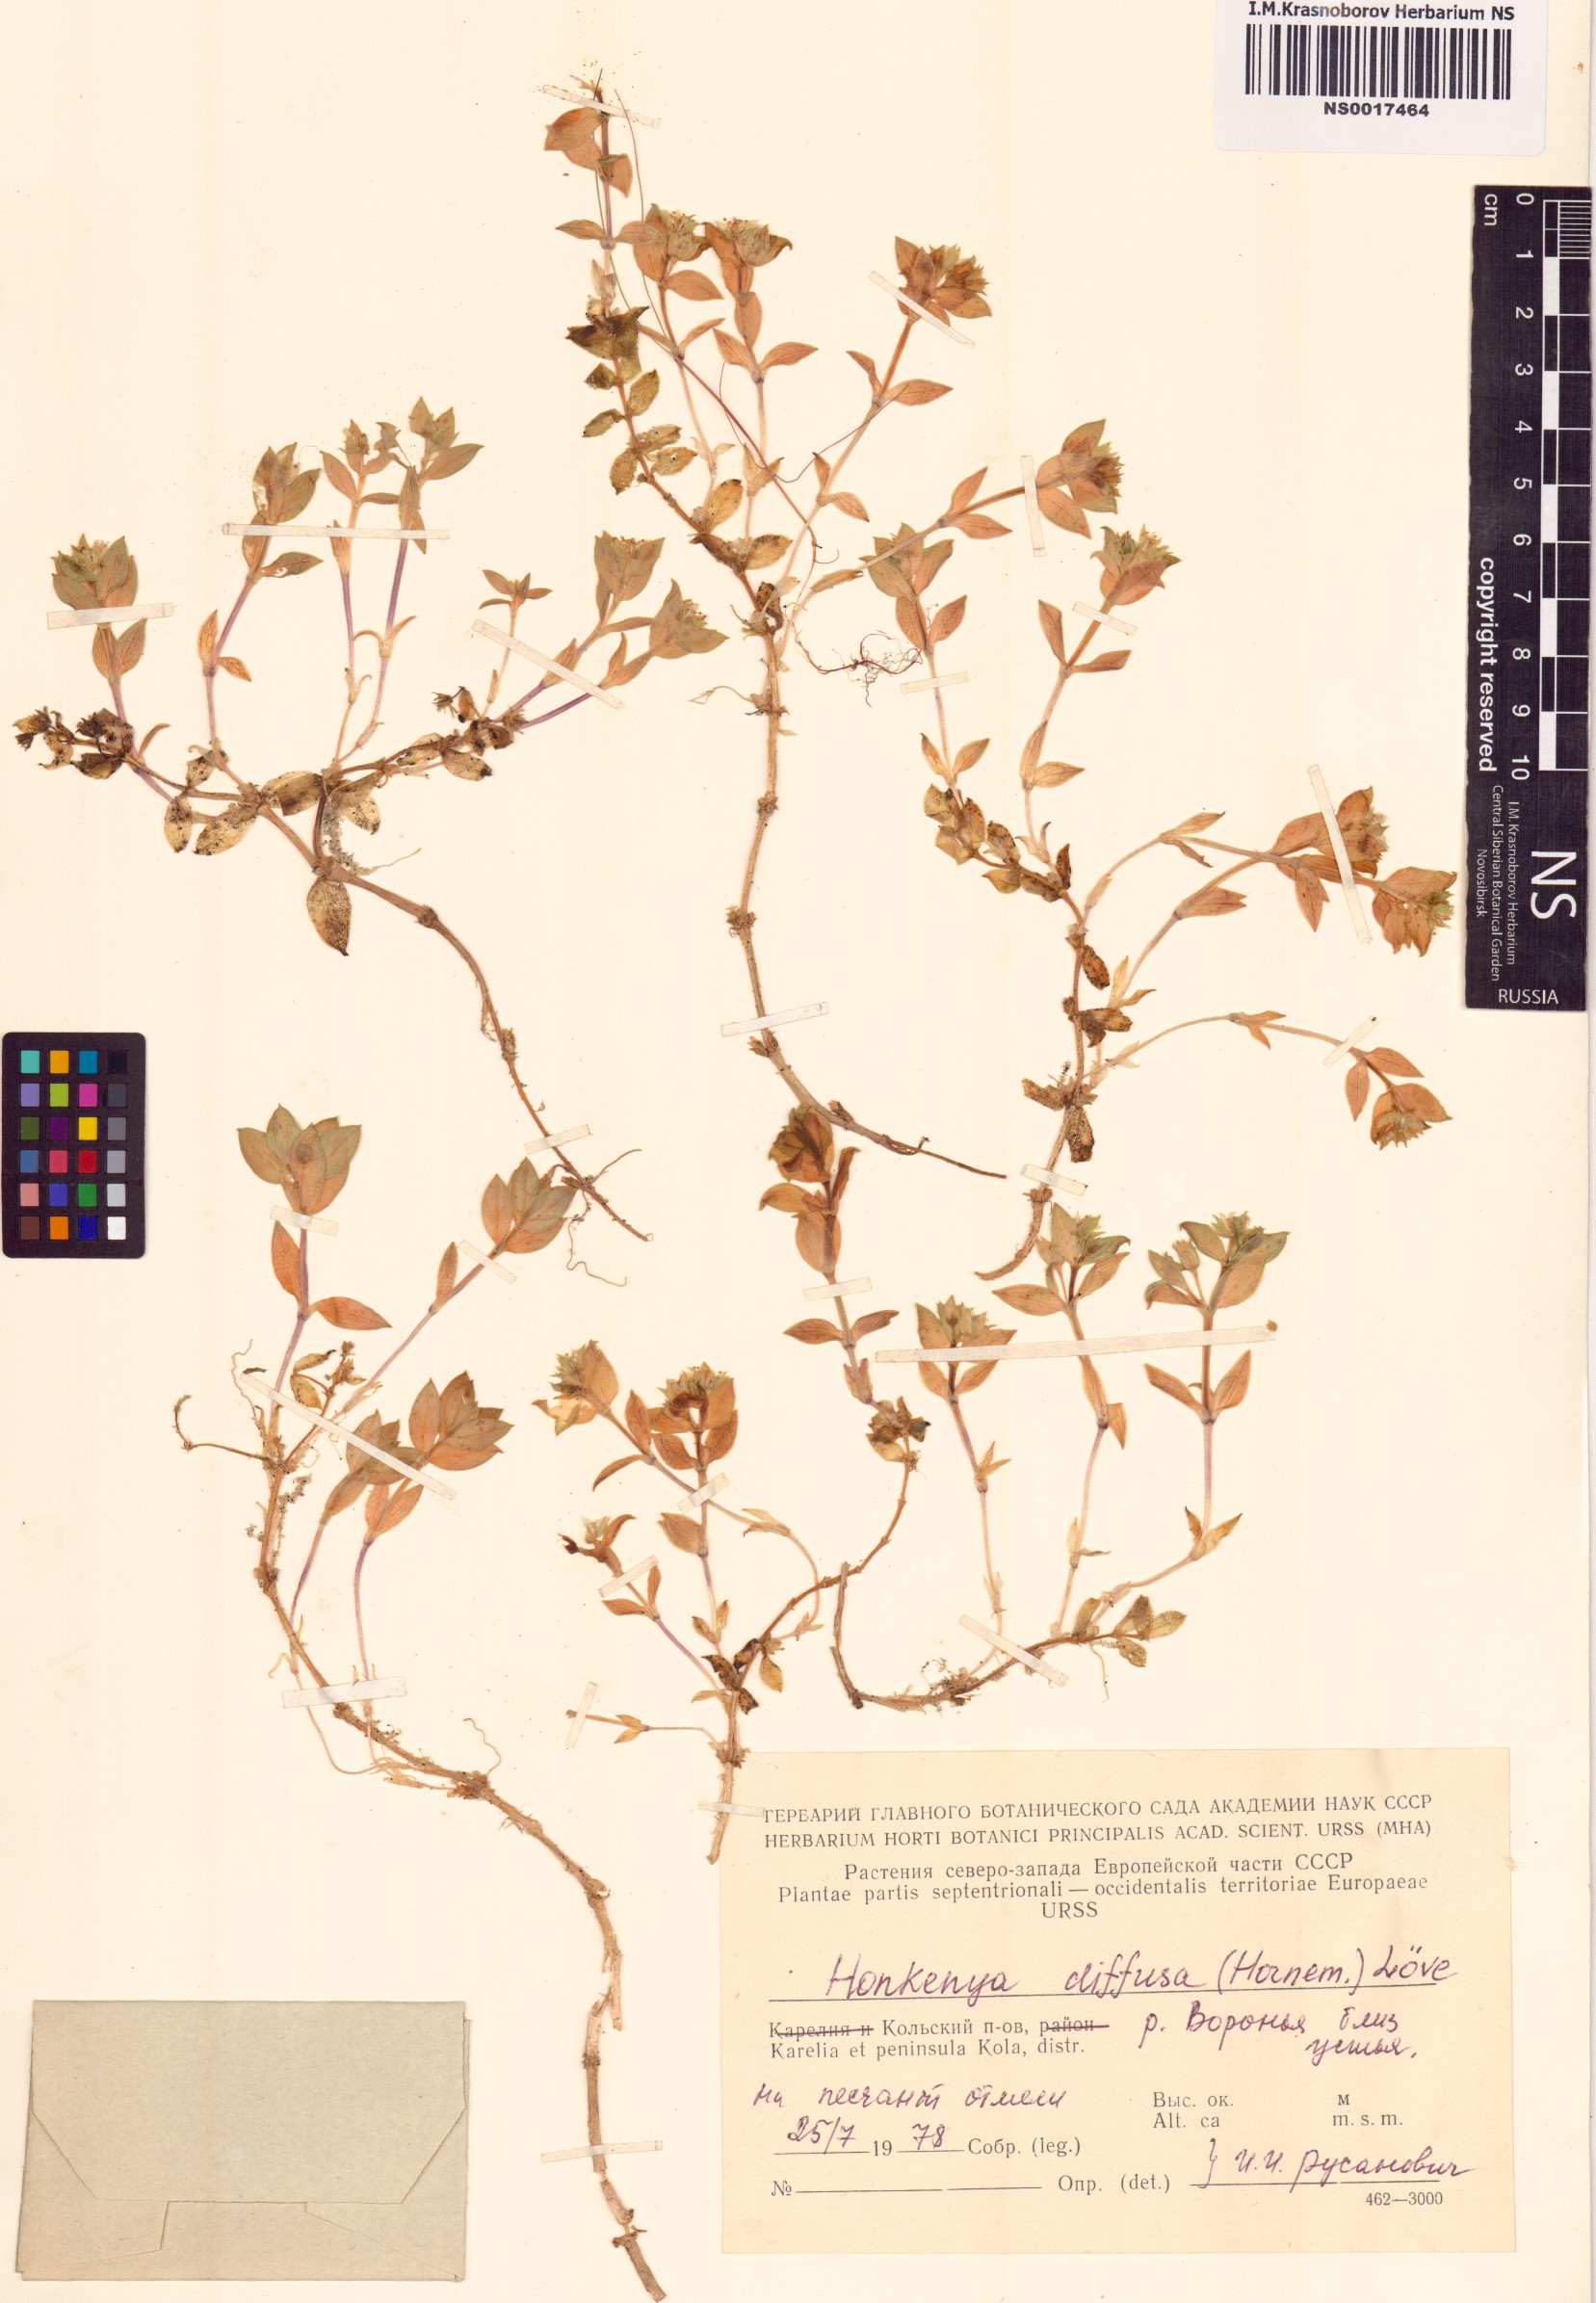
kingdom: Plantae
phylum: Tracheophyta
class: Magnoliopsida
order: Caryophyllales
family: Caryophyllaceae
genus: Honckenya
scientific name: Honckenya peploides
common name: Sea sandwort
